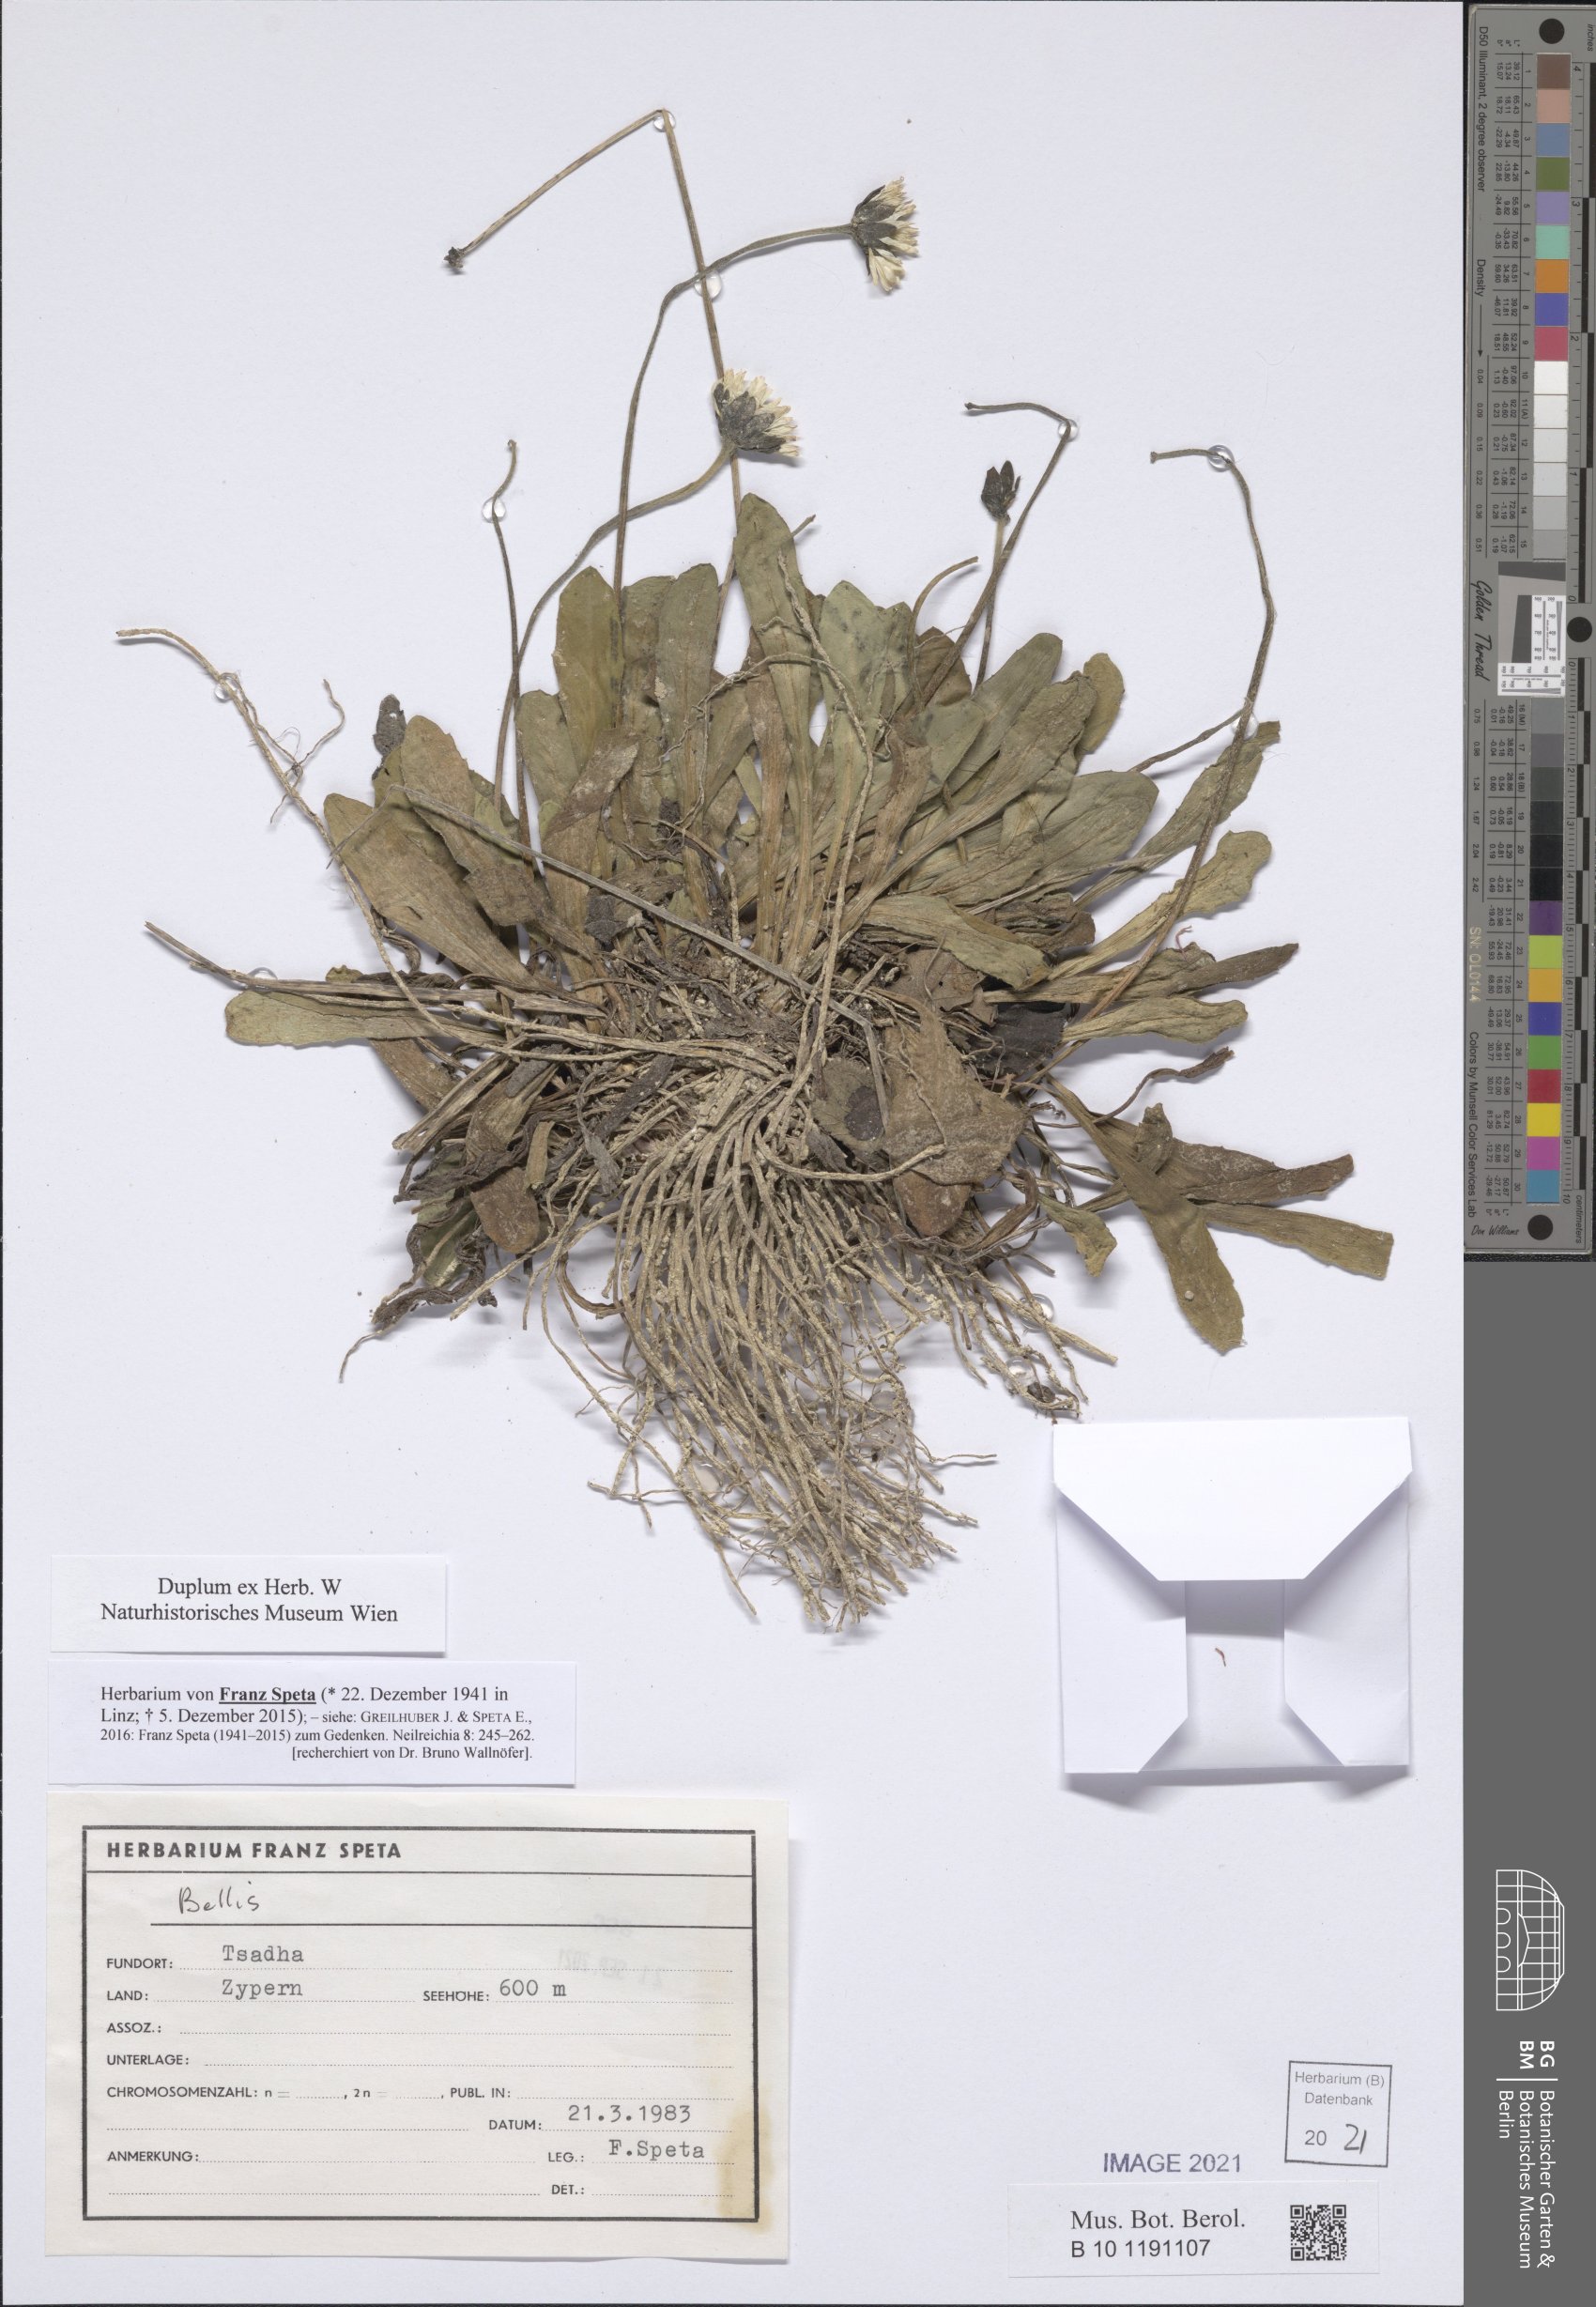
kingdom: Plantae
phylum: Tracheophyta
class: Magnoliopsida
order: Asterales
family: Asteraceae
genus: Bellis
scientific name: Bellis
